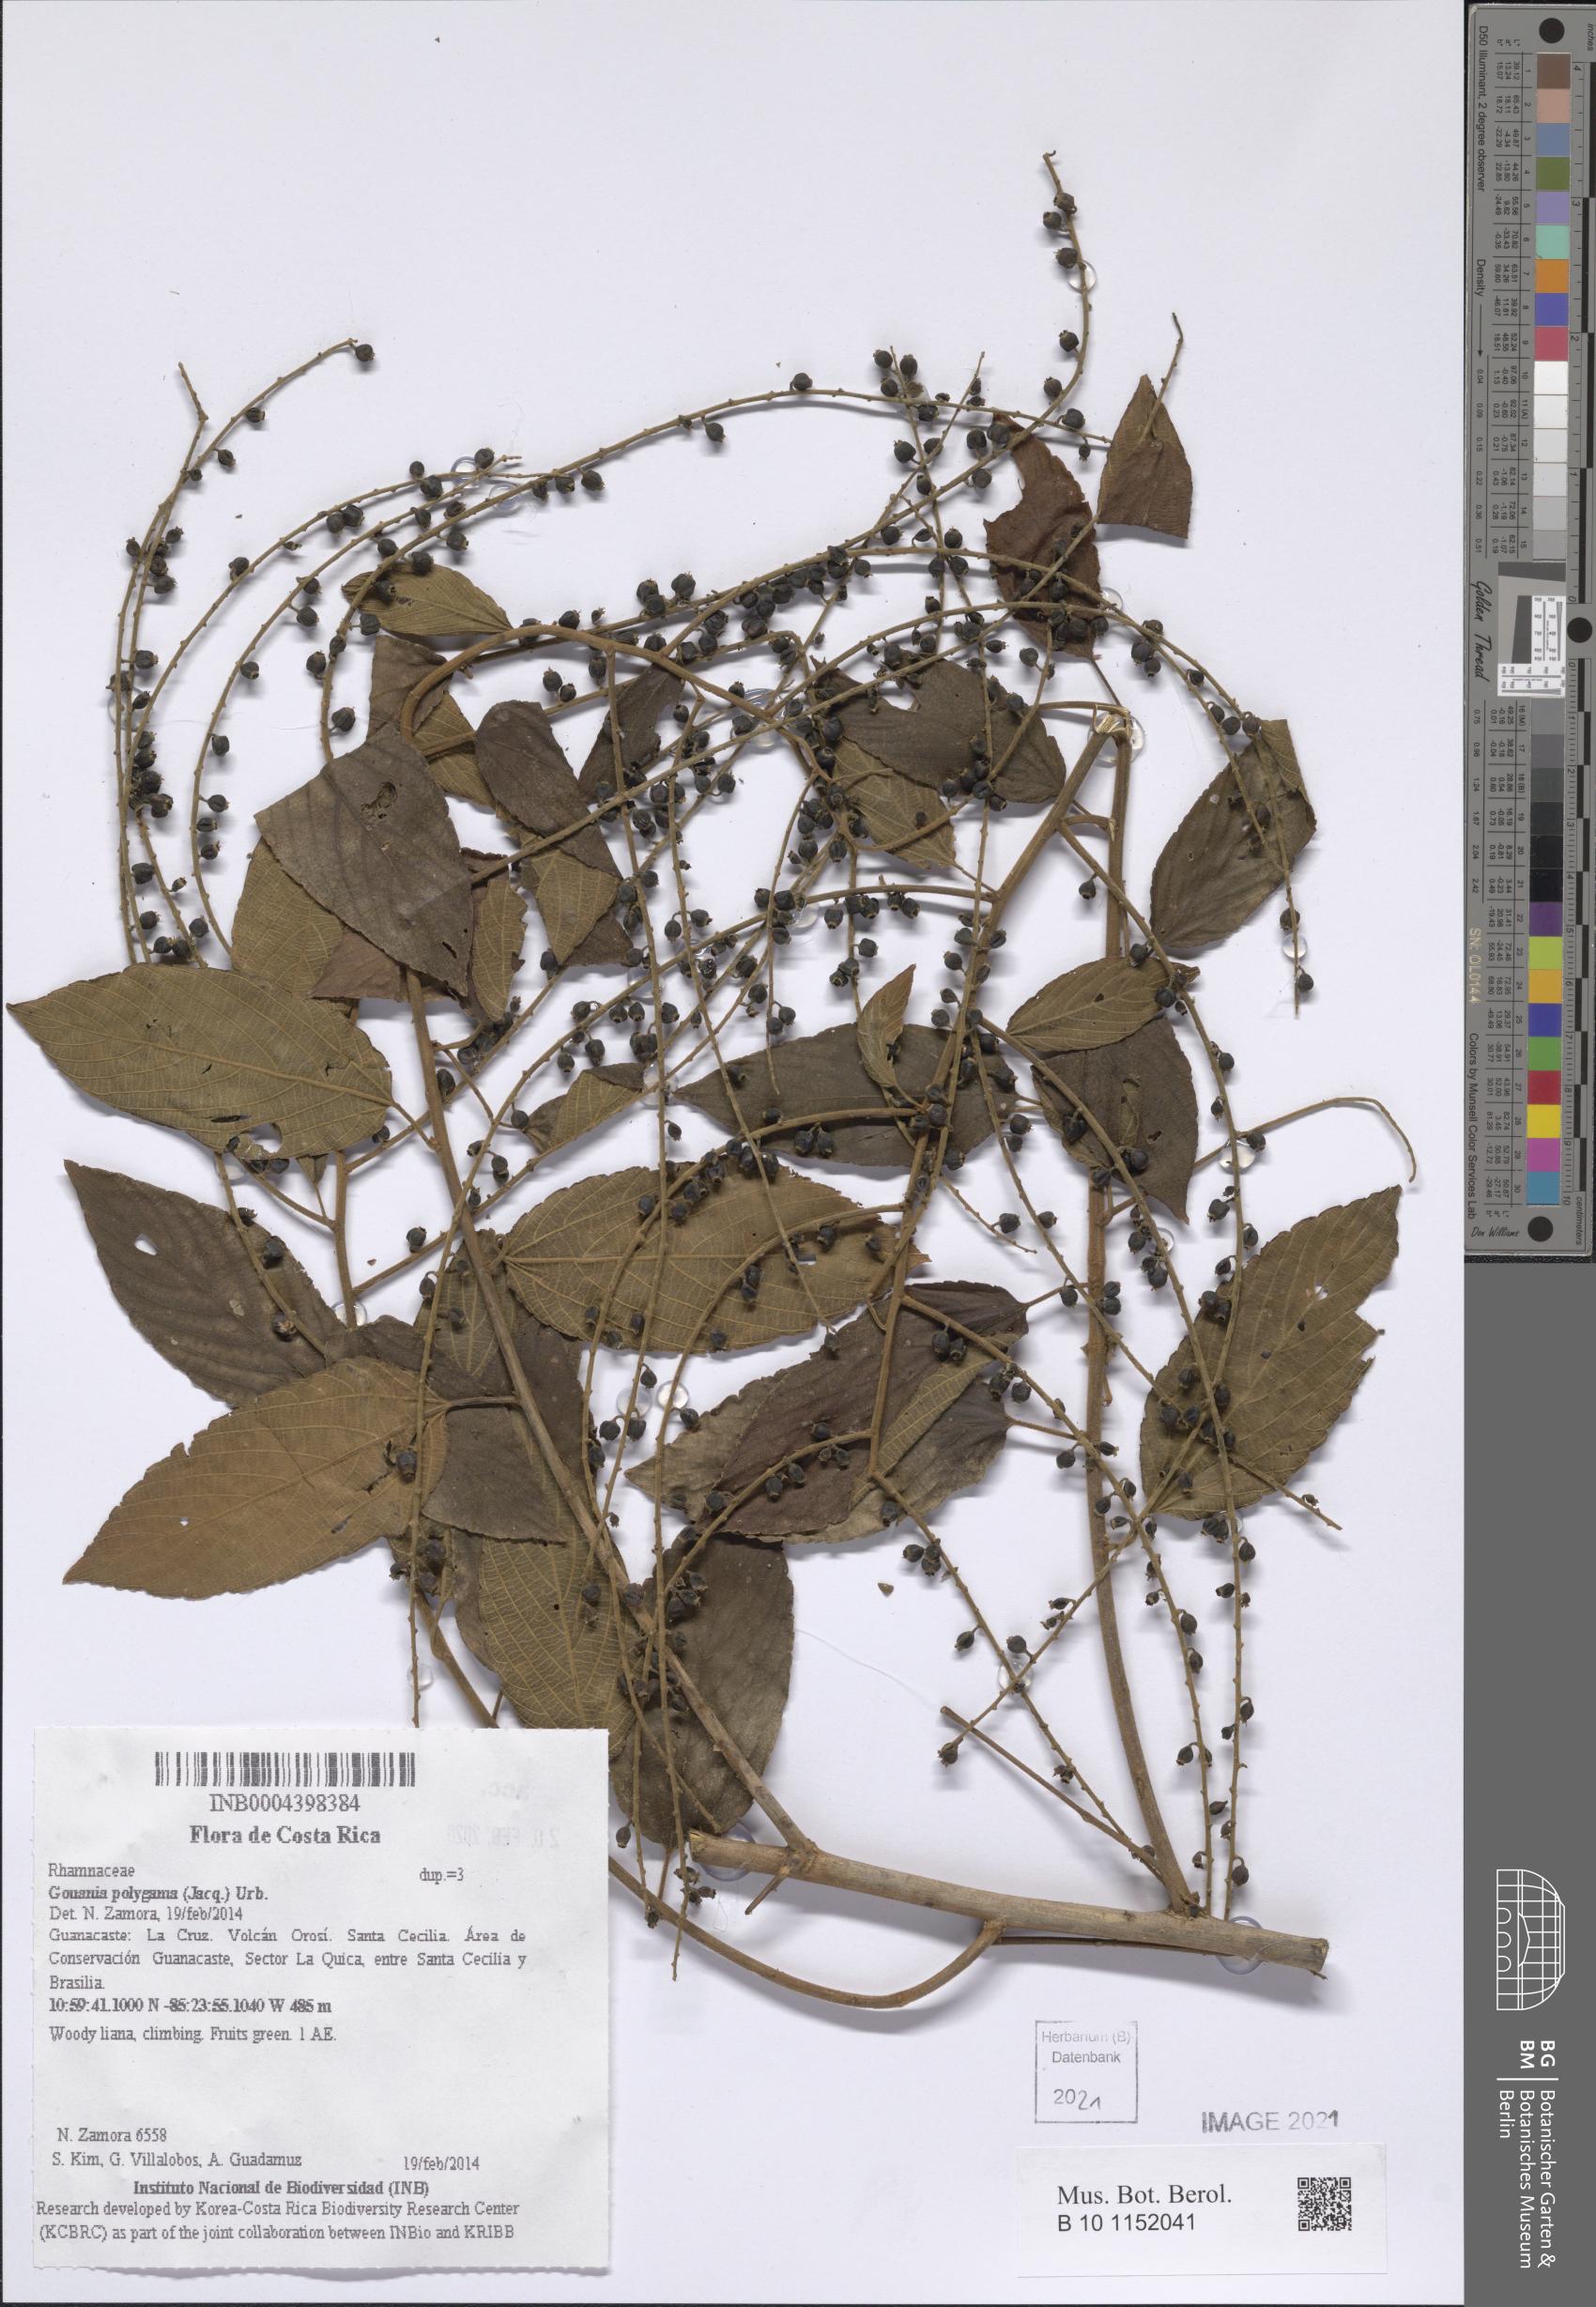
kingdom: Plantae
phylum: Tracheophyta
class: Magnoliopsida
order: Rosales
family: Rhamnaceae
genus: Gouania
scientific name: Gouania polygama
